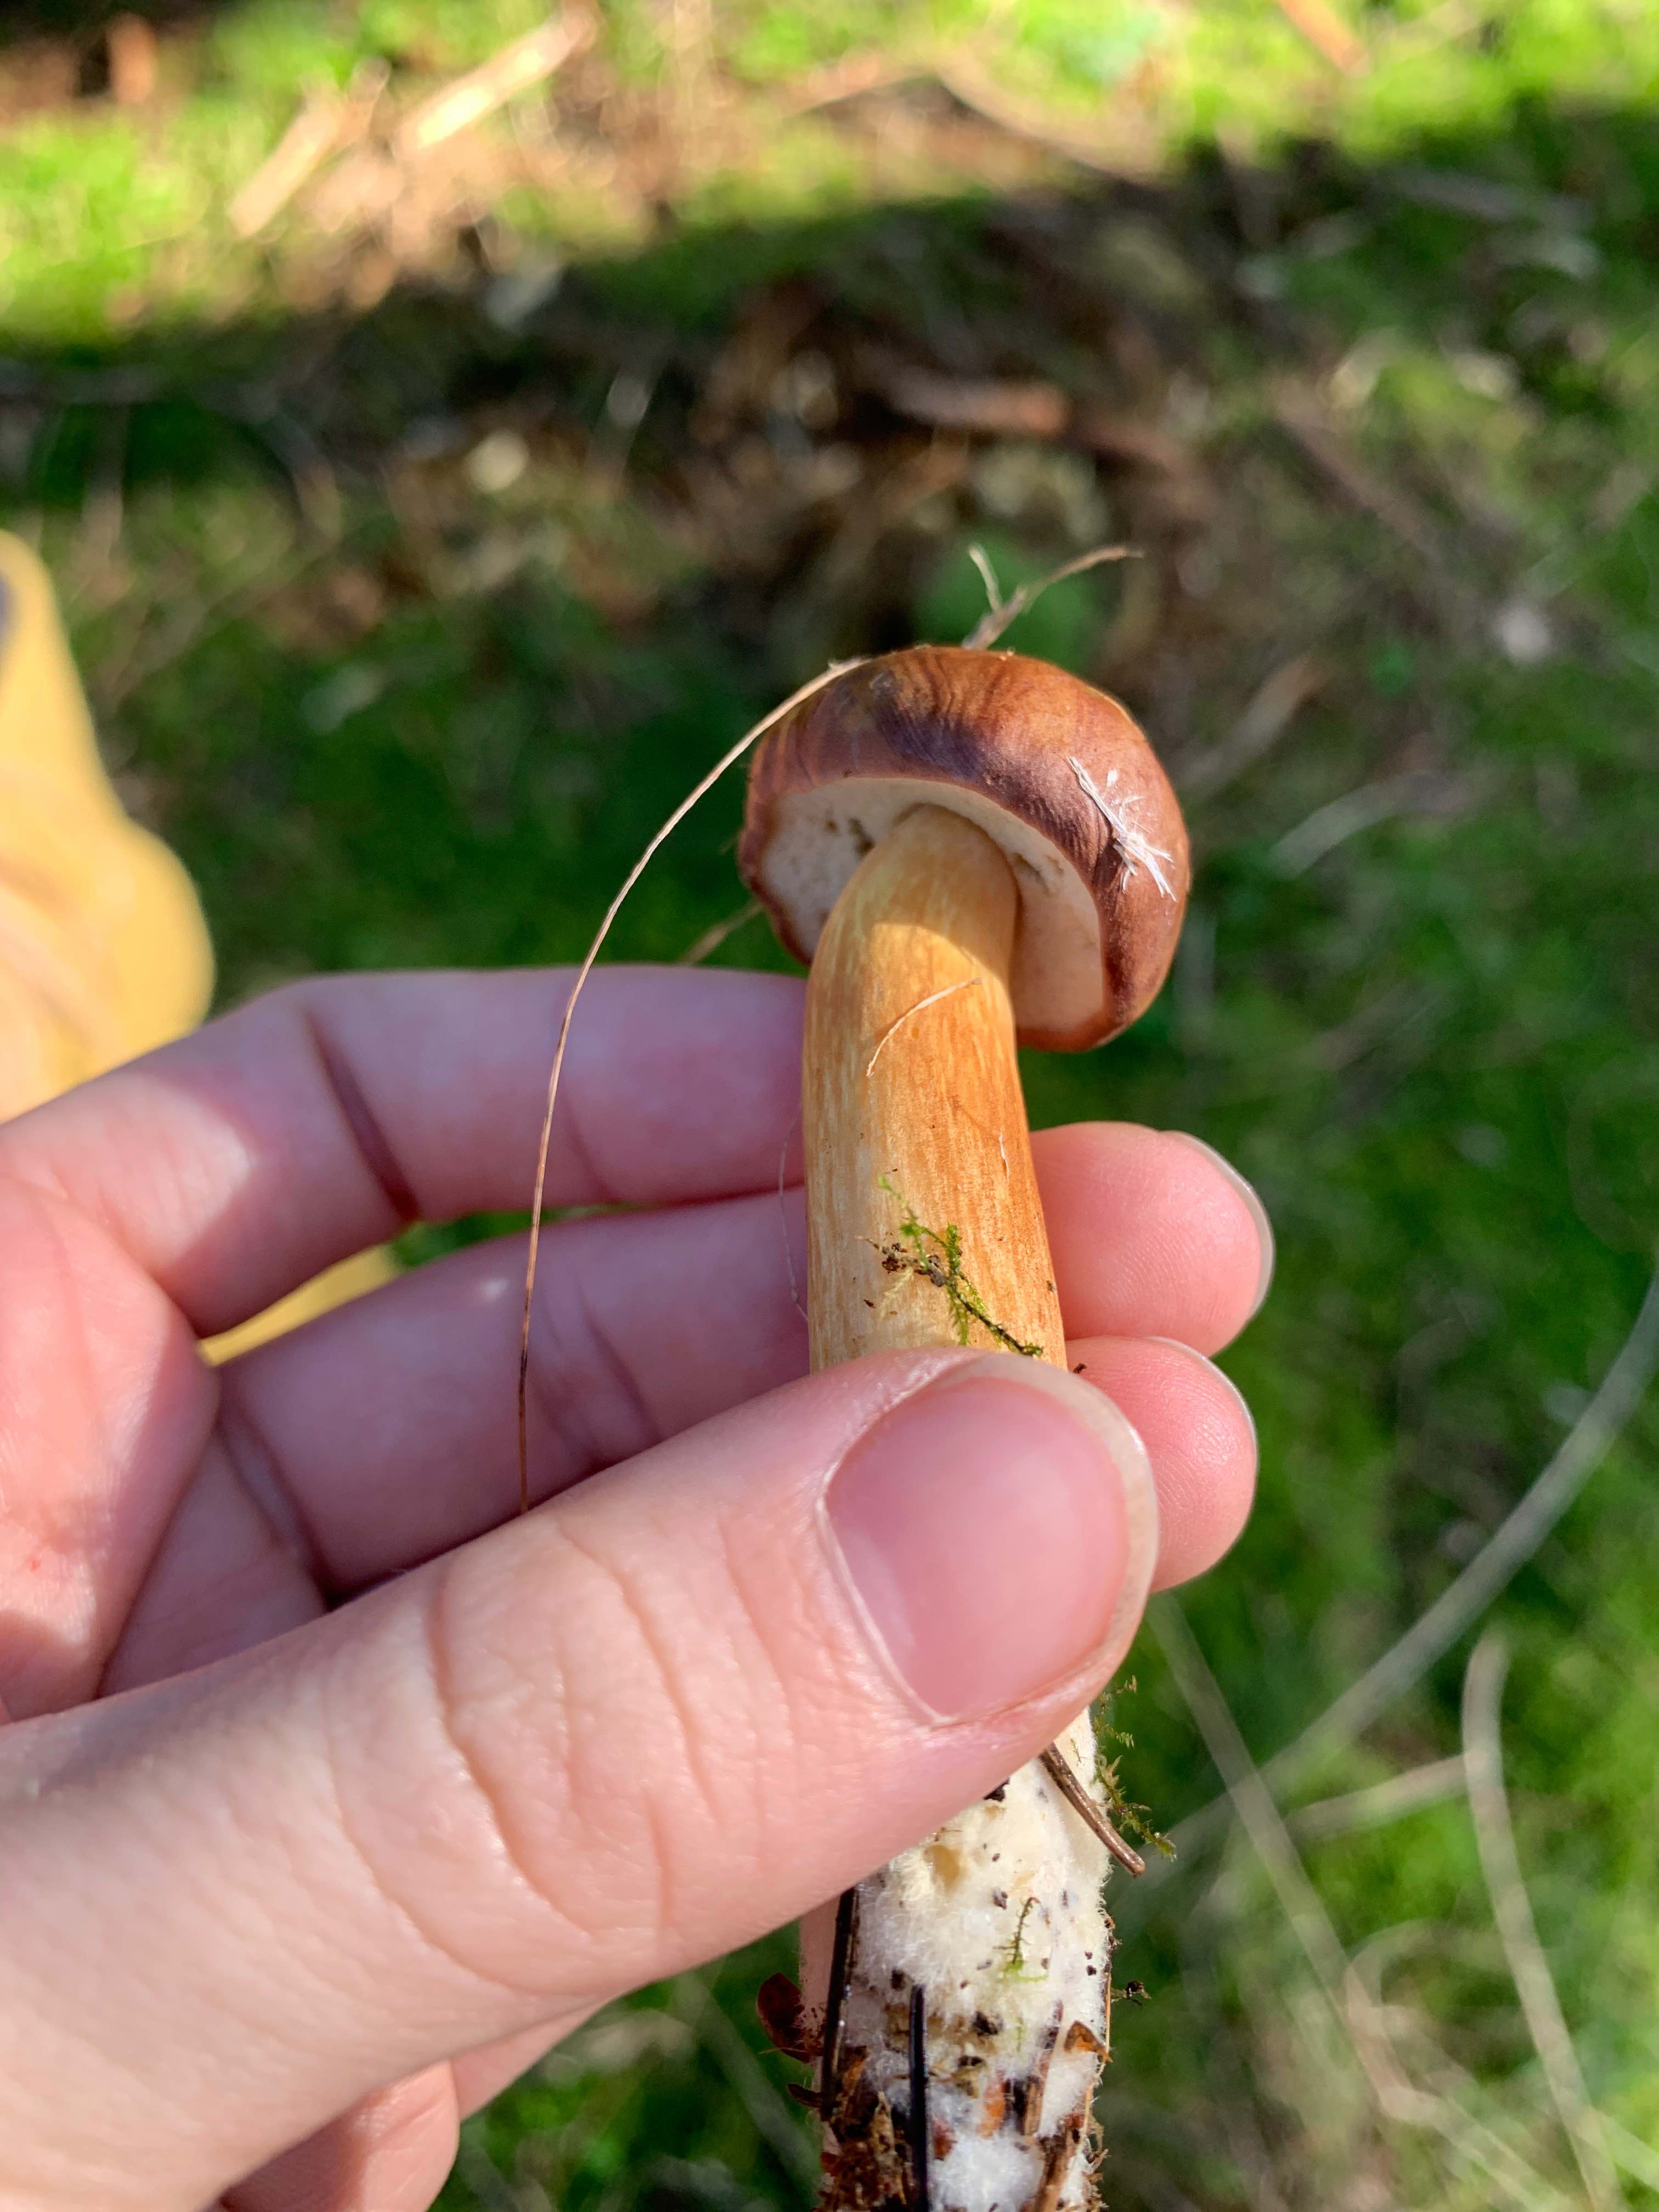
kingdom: Fungi
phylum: Basidiomycota
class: Agaricomycetes
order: Boletales
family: Boletaceae
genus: Imleria
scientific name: Imleria badia
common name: brunstokket rørhat
